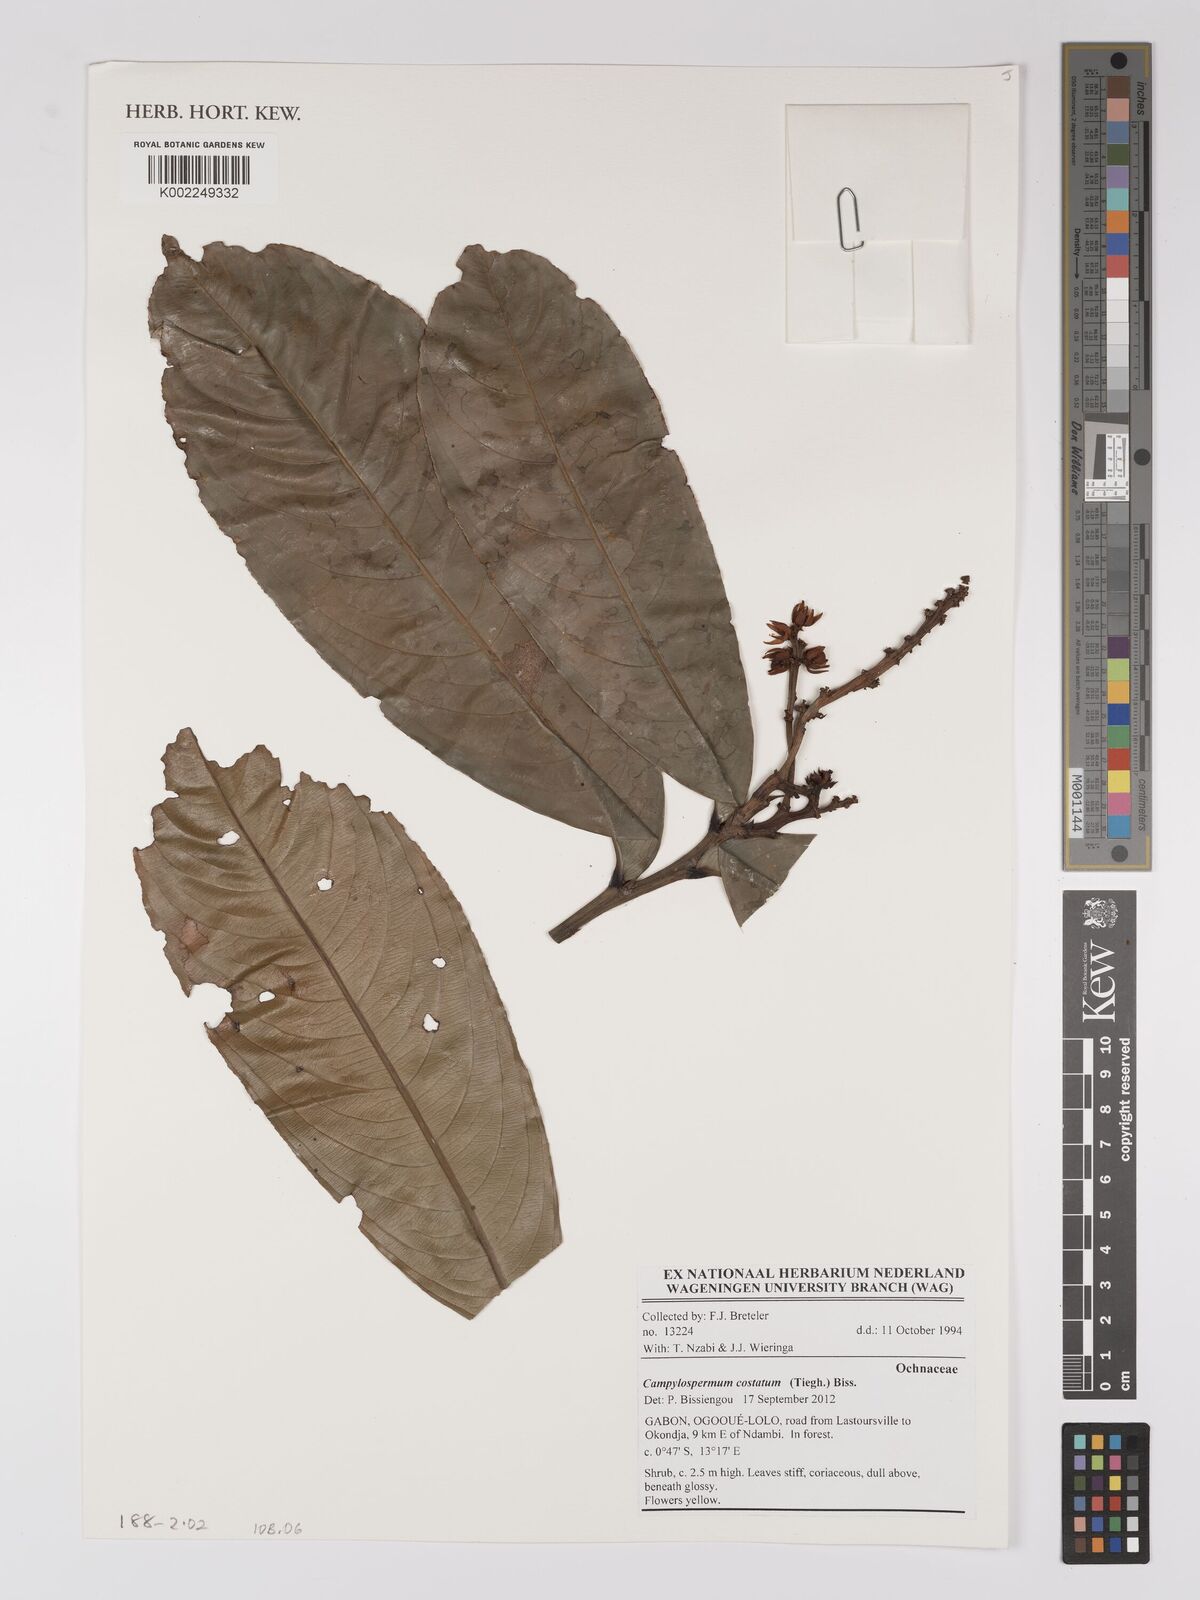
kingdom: Plantae
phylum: Tracheophyta
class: Magnoliopsida
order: Malpighiales
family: Ochnaceae
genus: Campylospermum
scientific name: Campylospermum costatum
